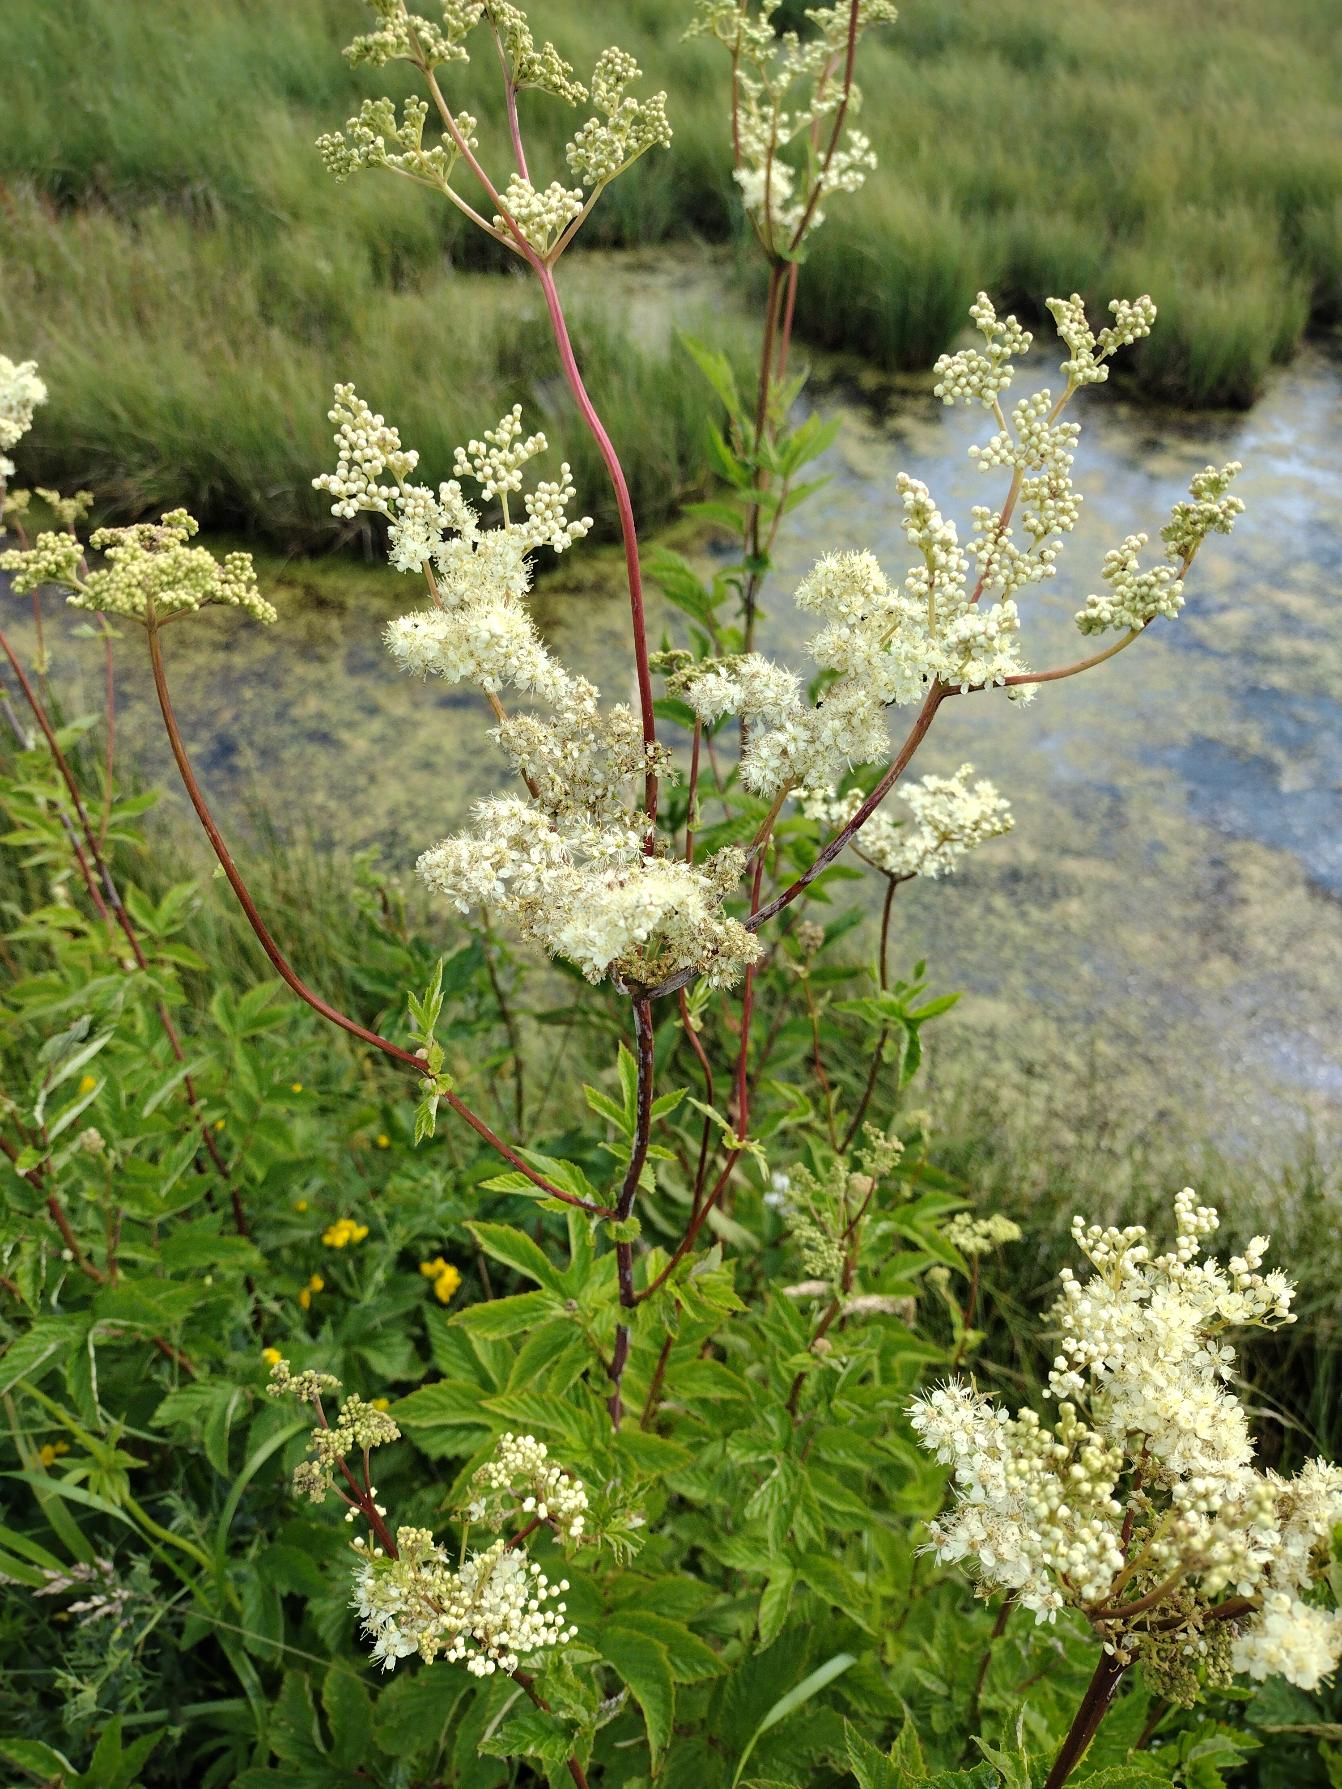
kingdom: Plantae
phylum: Tracheophyta
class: Magnoliopsida
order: Rosales
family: Rosaceae
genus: Filipendula
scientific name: Filipendula ulmaria
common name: Almindelig mjødurt
